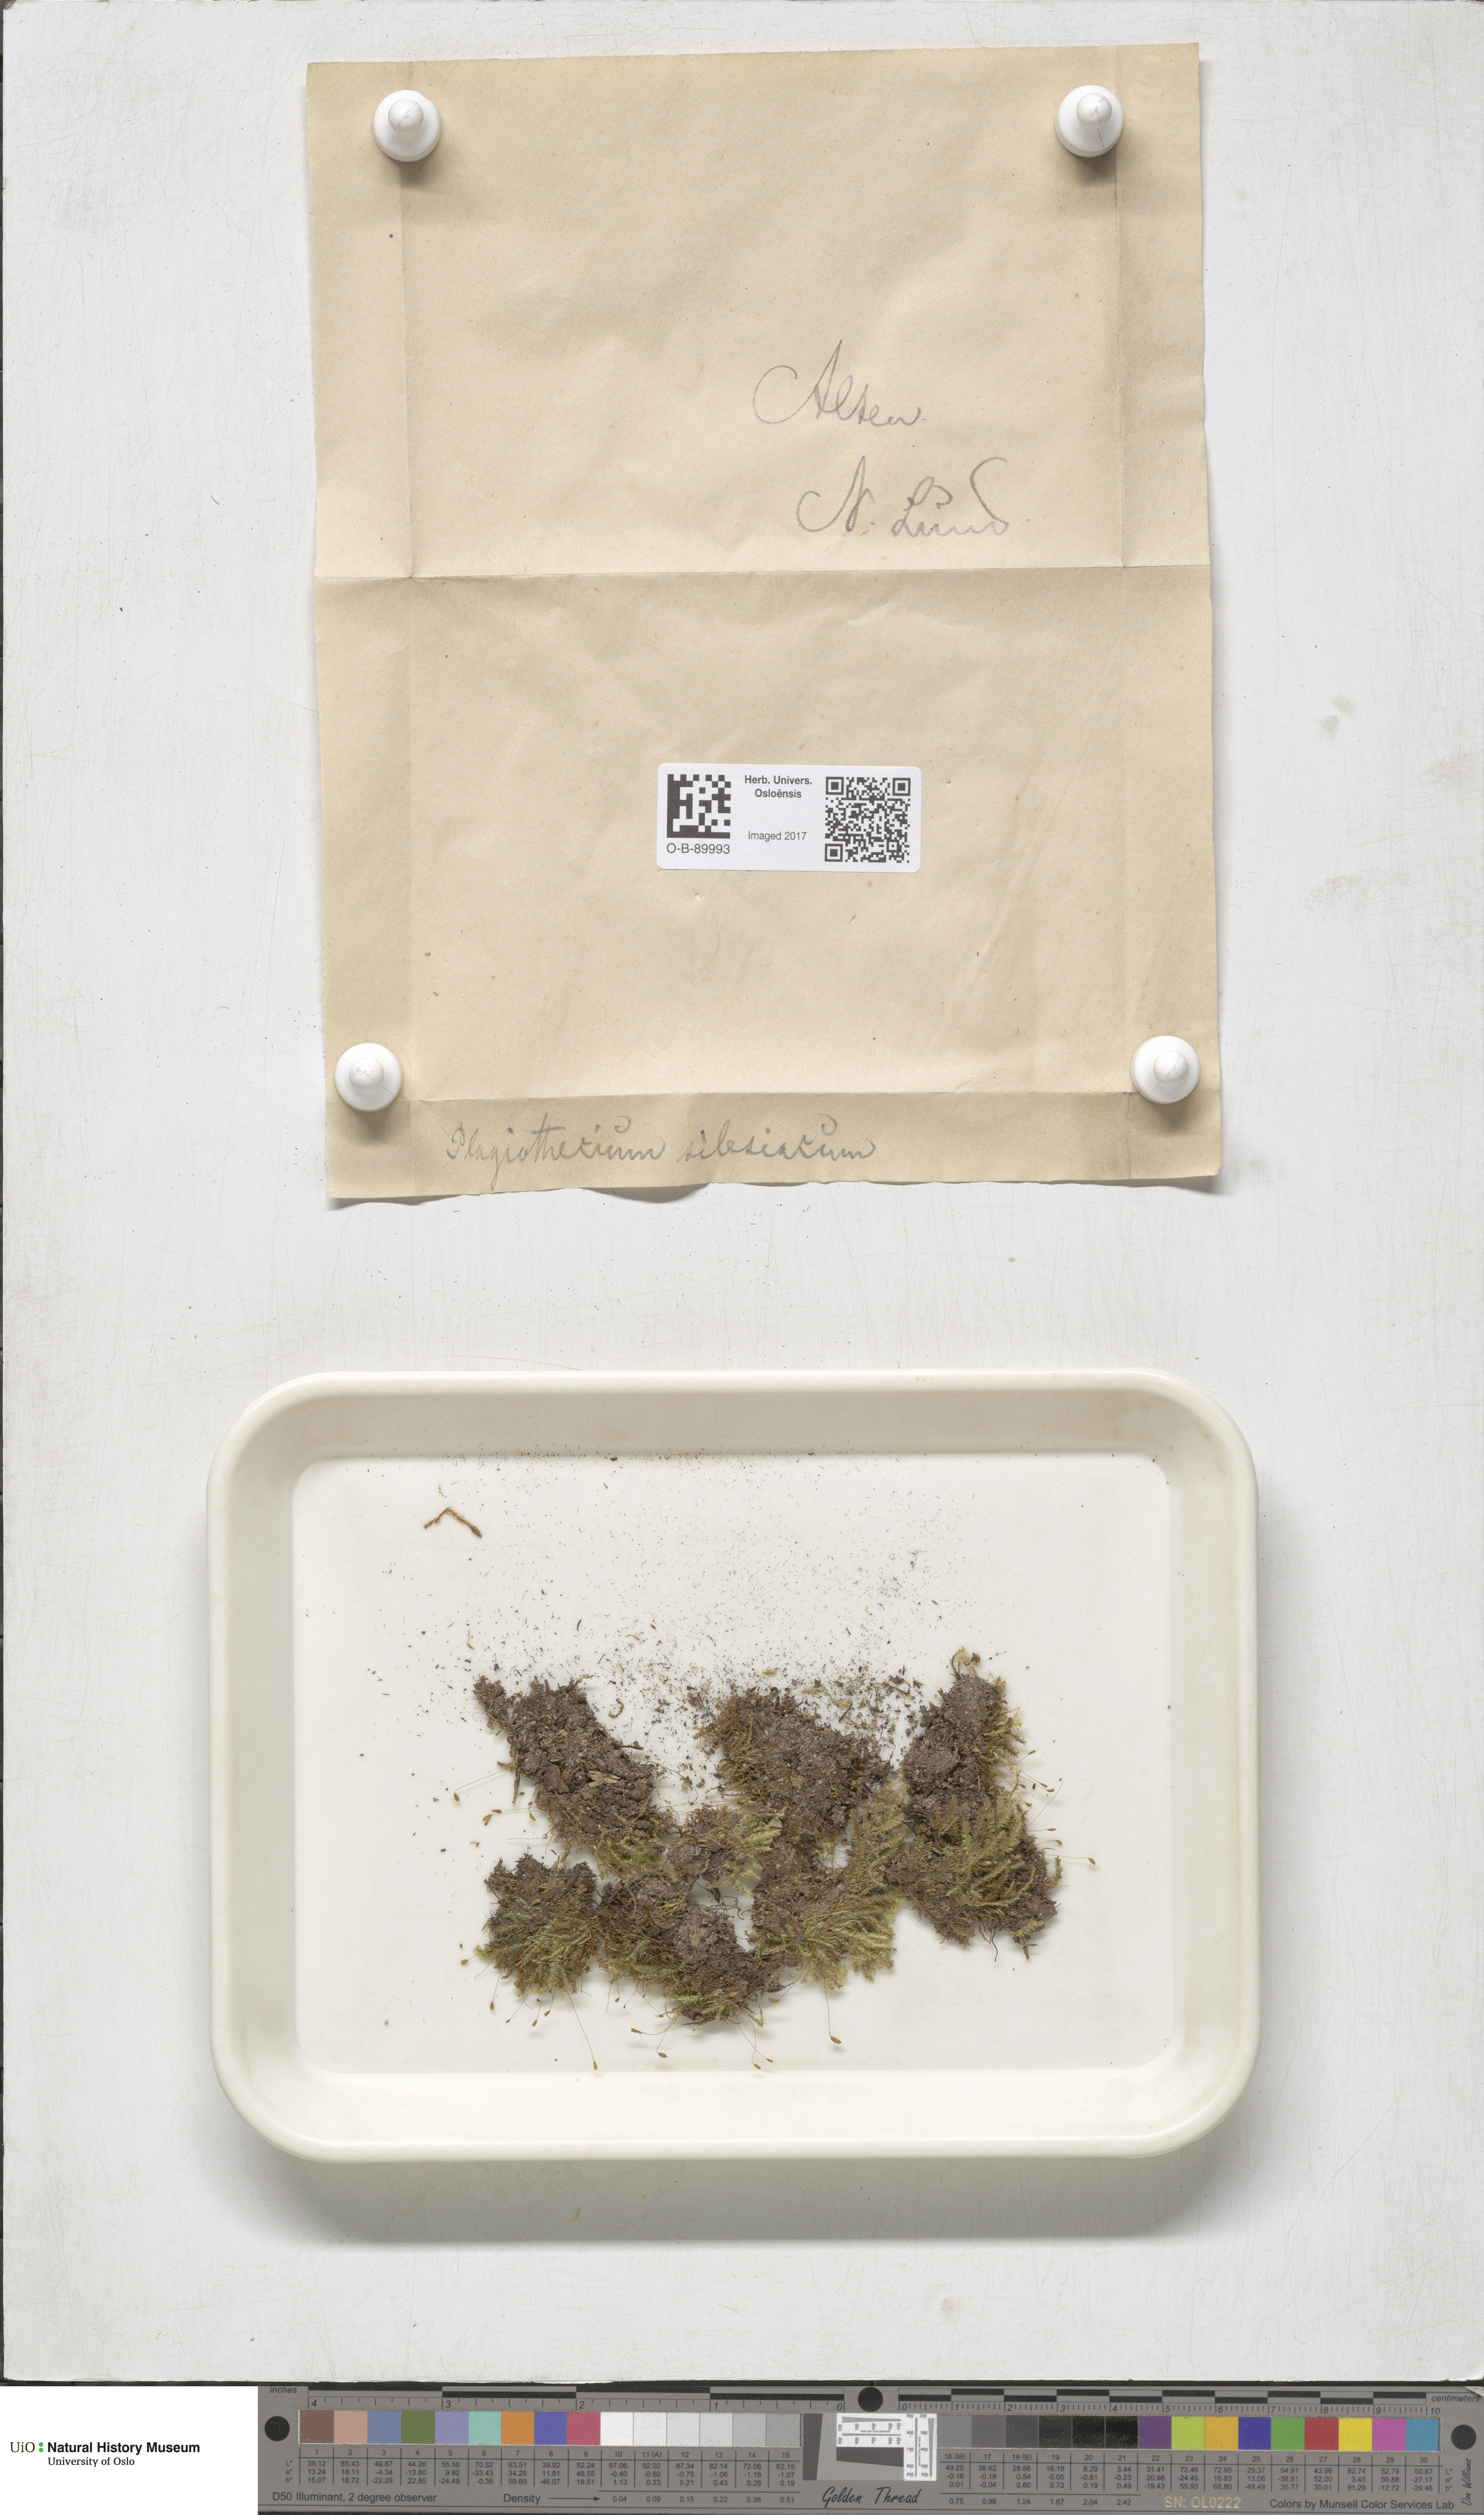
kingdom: Plantae
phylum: Bryophyta
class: Bryopsida
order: Hypnales
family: Plagiotheciaceae
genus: Herzogiella
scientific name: Herzogiella seligeri
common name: Silesian feather-moss
